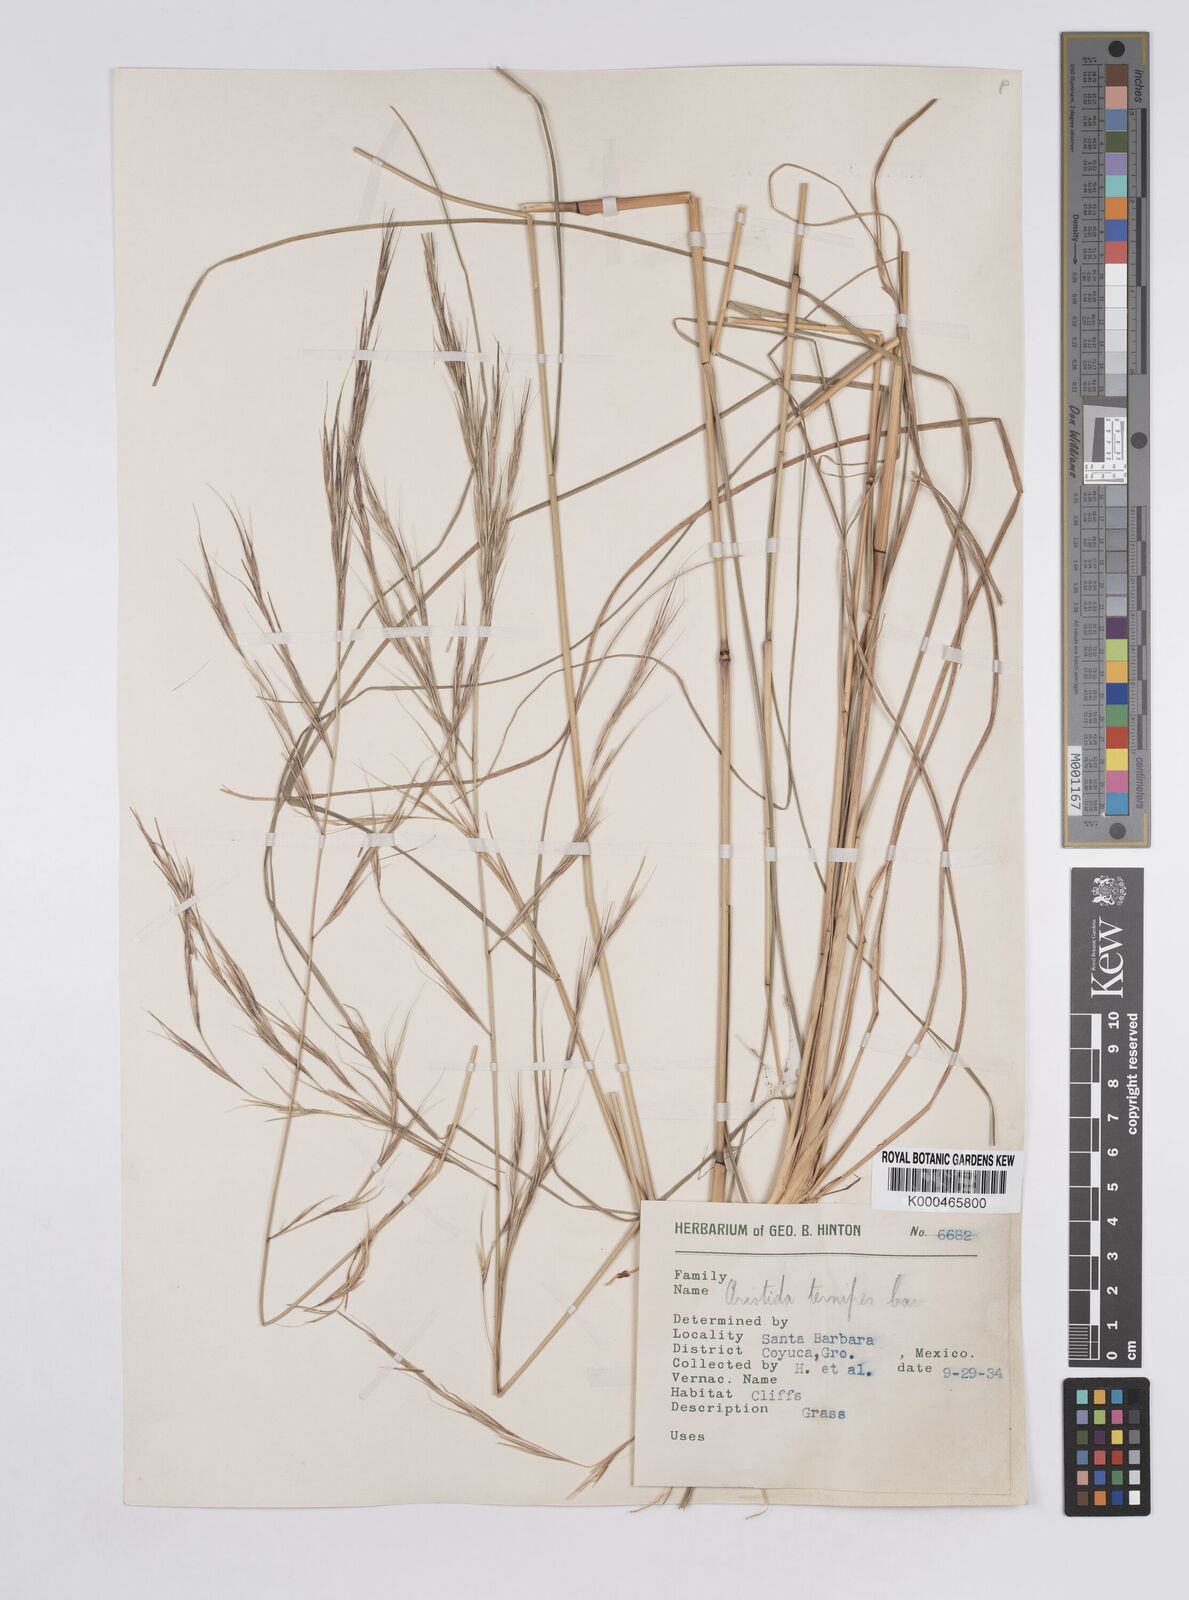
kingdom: Plantae
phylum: Tracheophyta
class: Liliopsida
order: Poales
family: Poaceae
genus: Aristida
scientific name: Aristida ternipes
